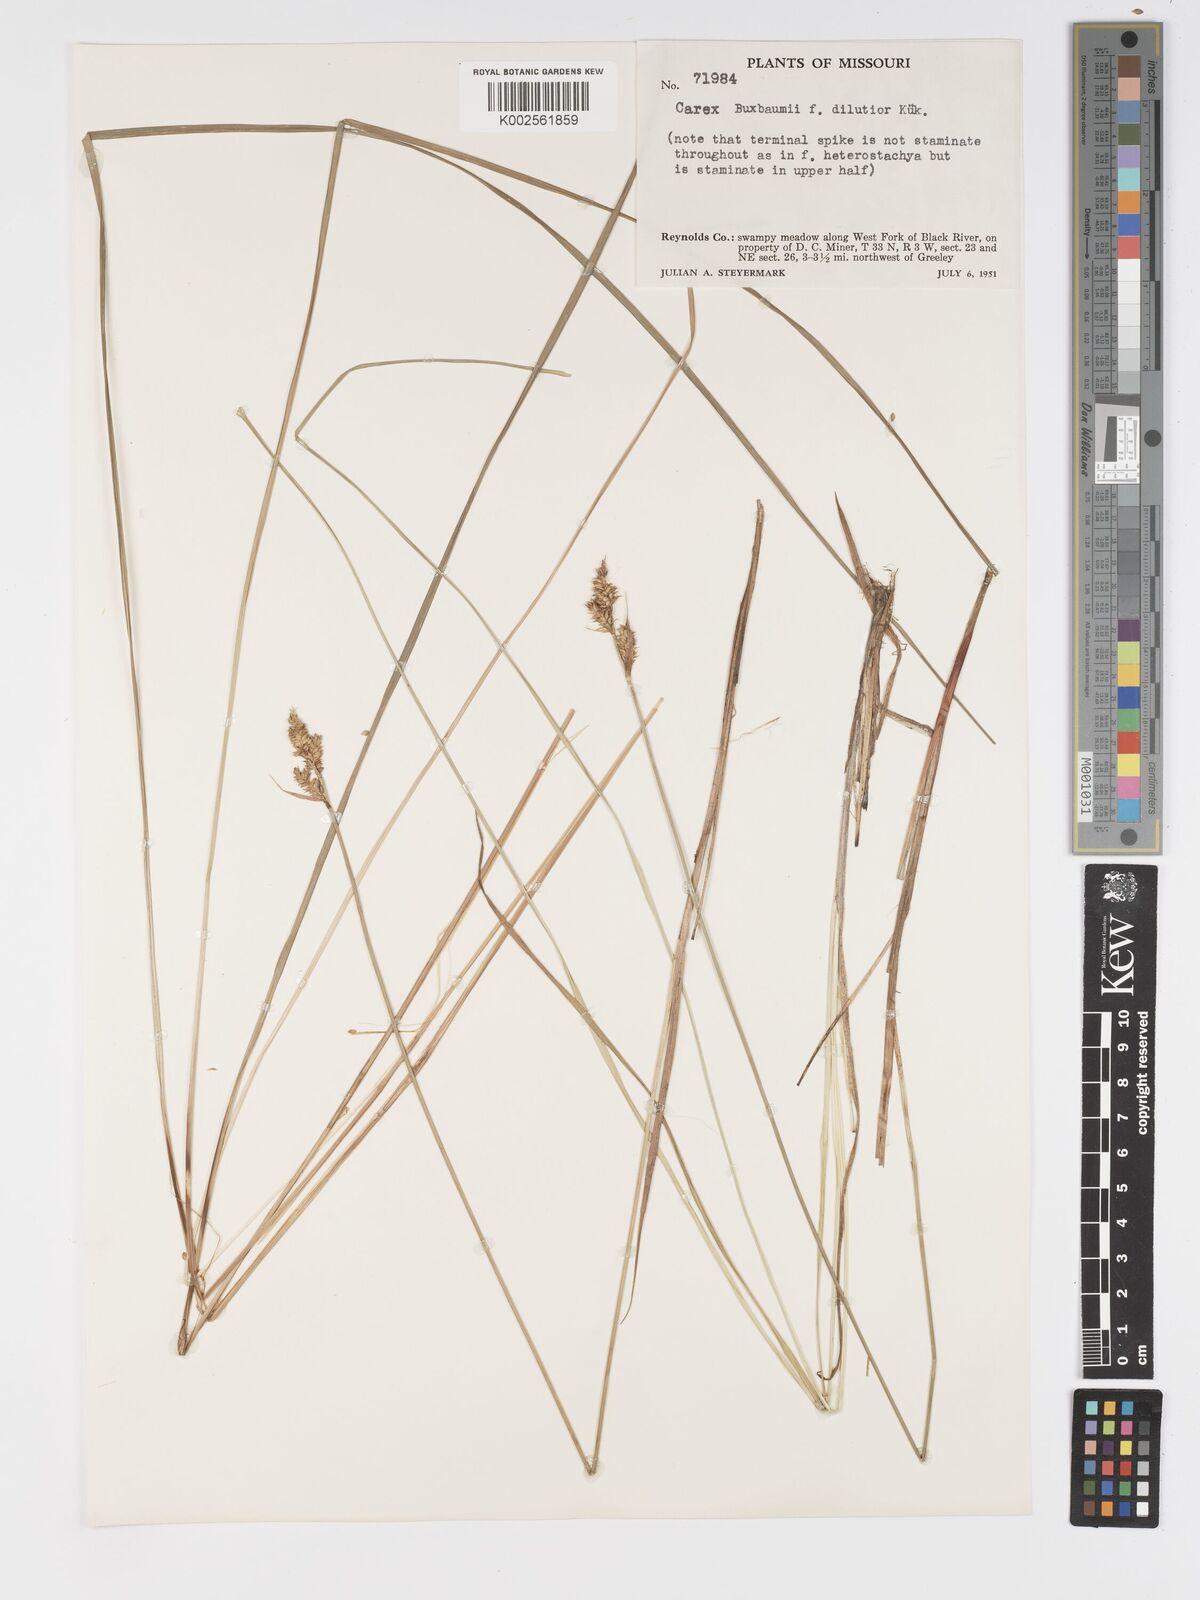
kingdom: Plantae
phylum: Tracheophyta
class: Liliopsida
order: Poales
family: Cyperaceae
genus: Carex
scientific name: Carex buxbaumii
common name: Club sedge
